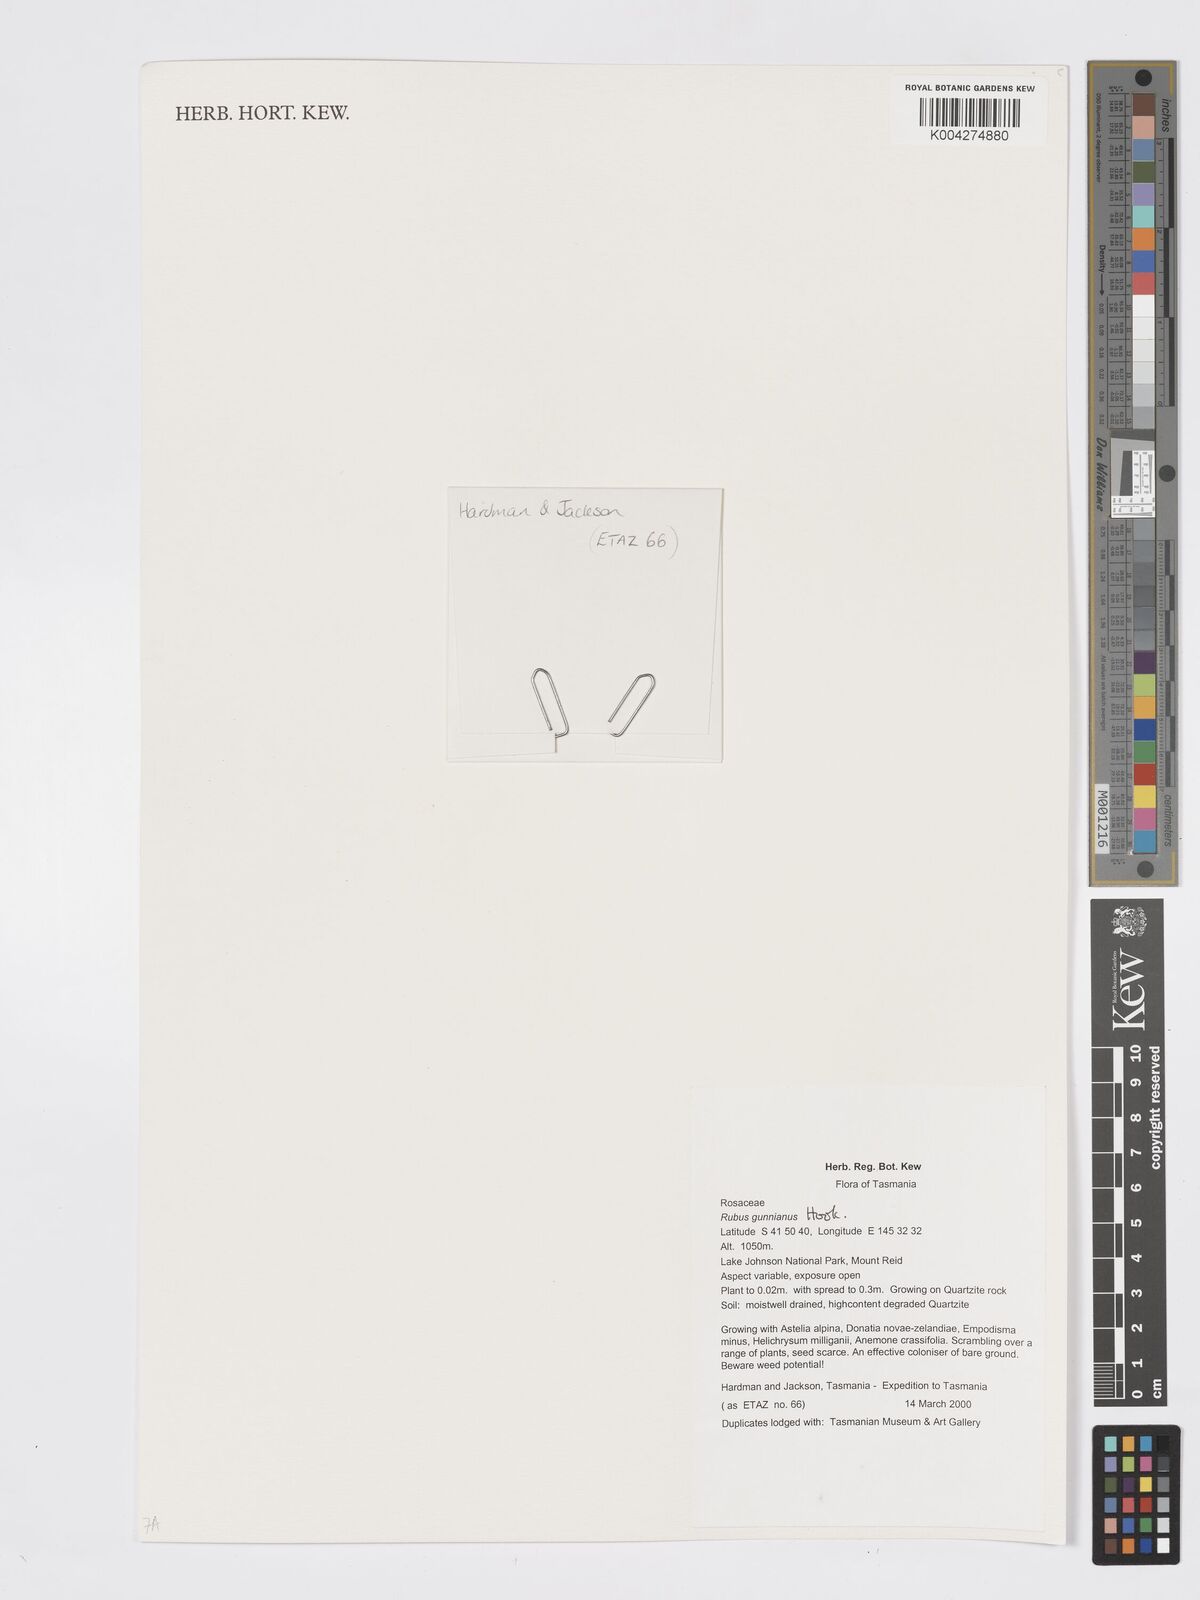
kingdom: Plantae
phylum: Tracheophyta
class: Magnoliopsida
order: Rosales
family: Rosaceae
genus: Rubus
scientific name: Rubus gunnianus
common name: Mountain raspberry
